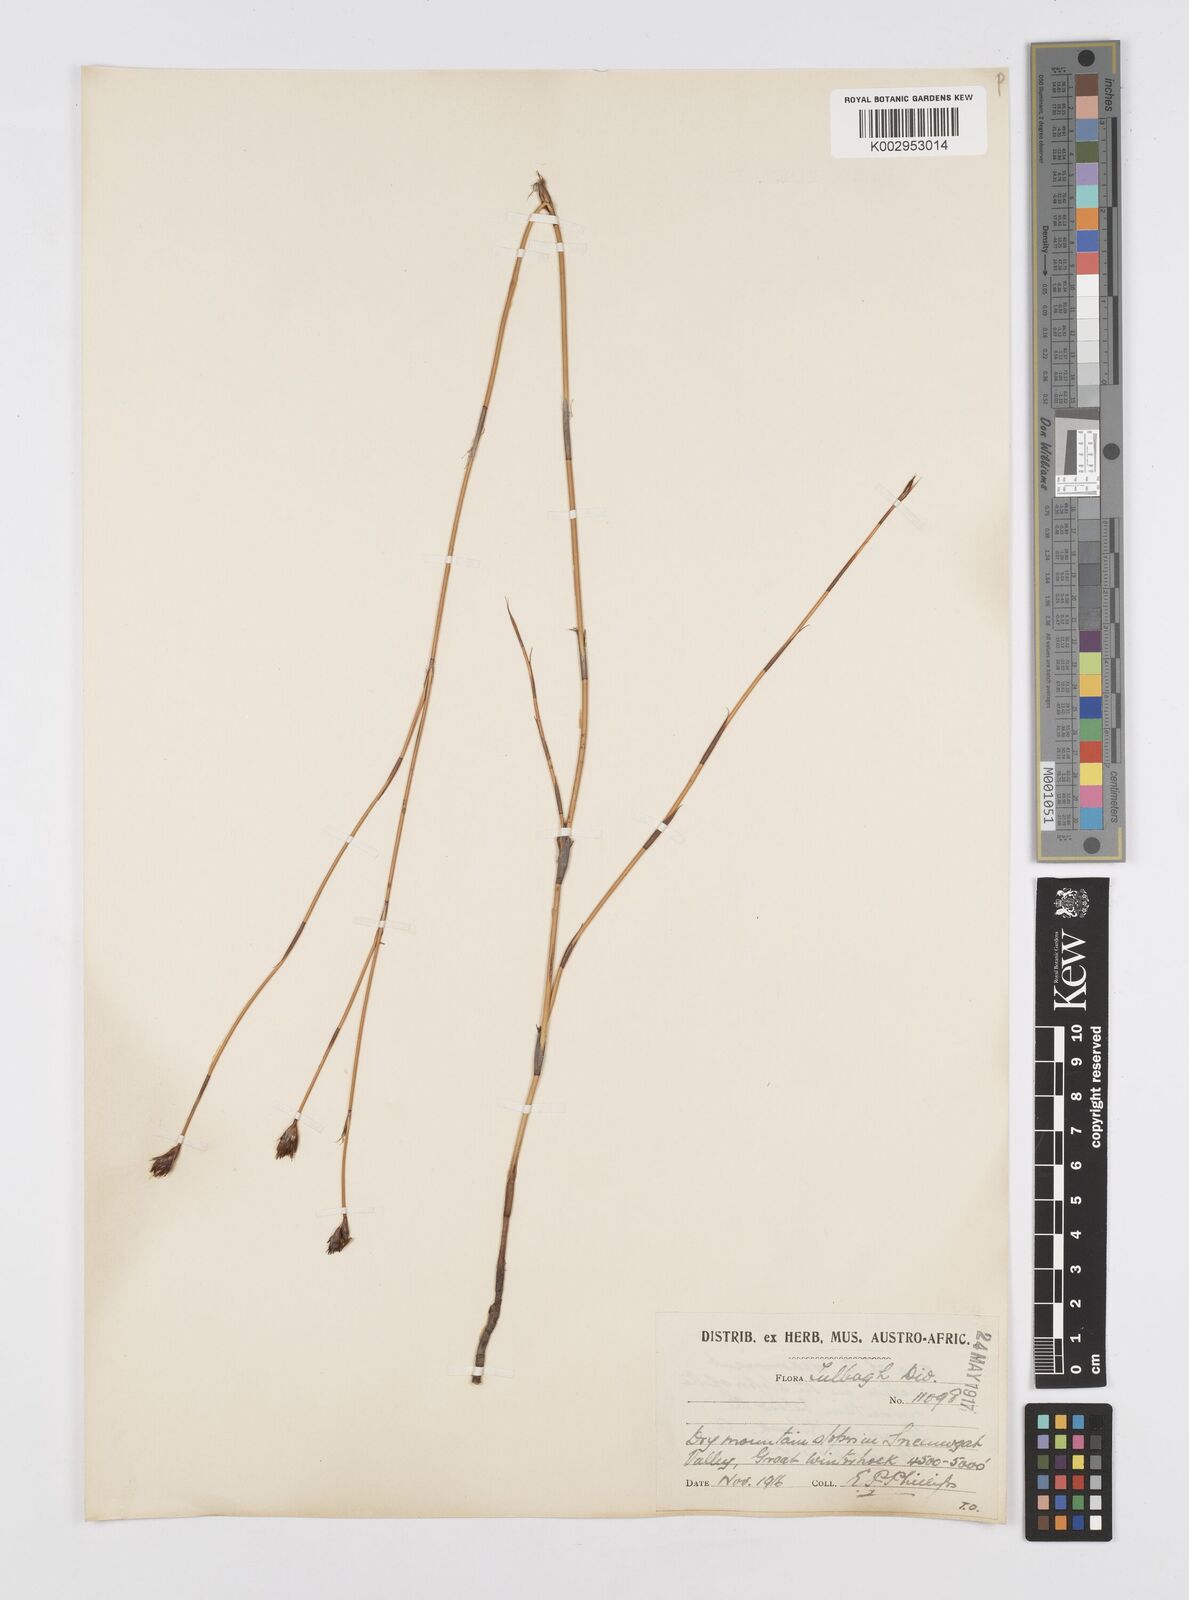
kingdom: Plantae
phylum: Tracheophyta
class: Liliopsida
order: Poales
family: Restionaceae
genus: Restio
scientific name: Restio sieberi
